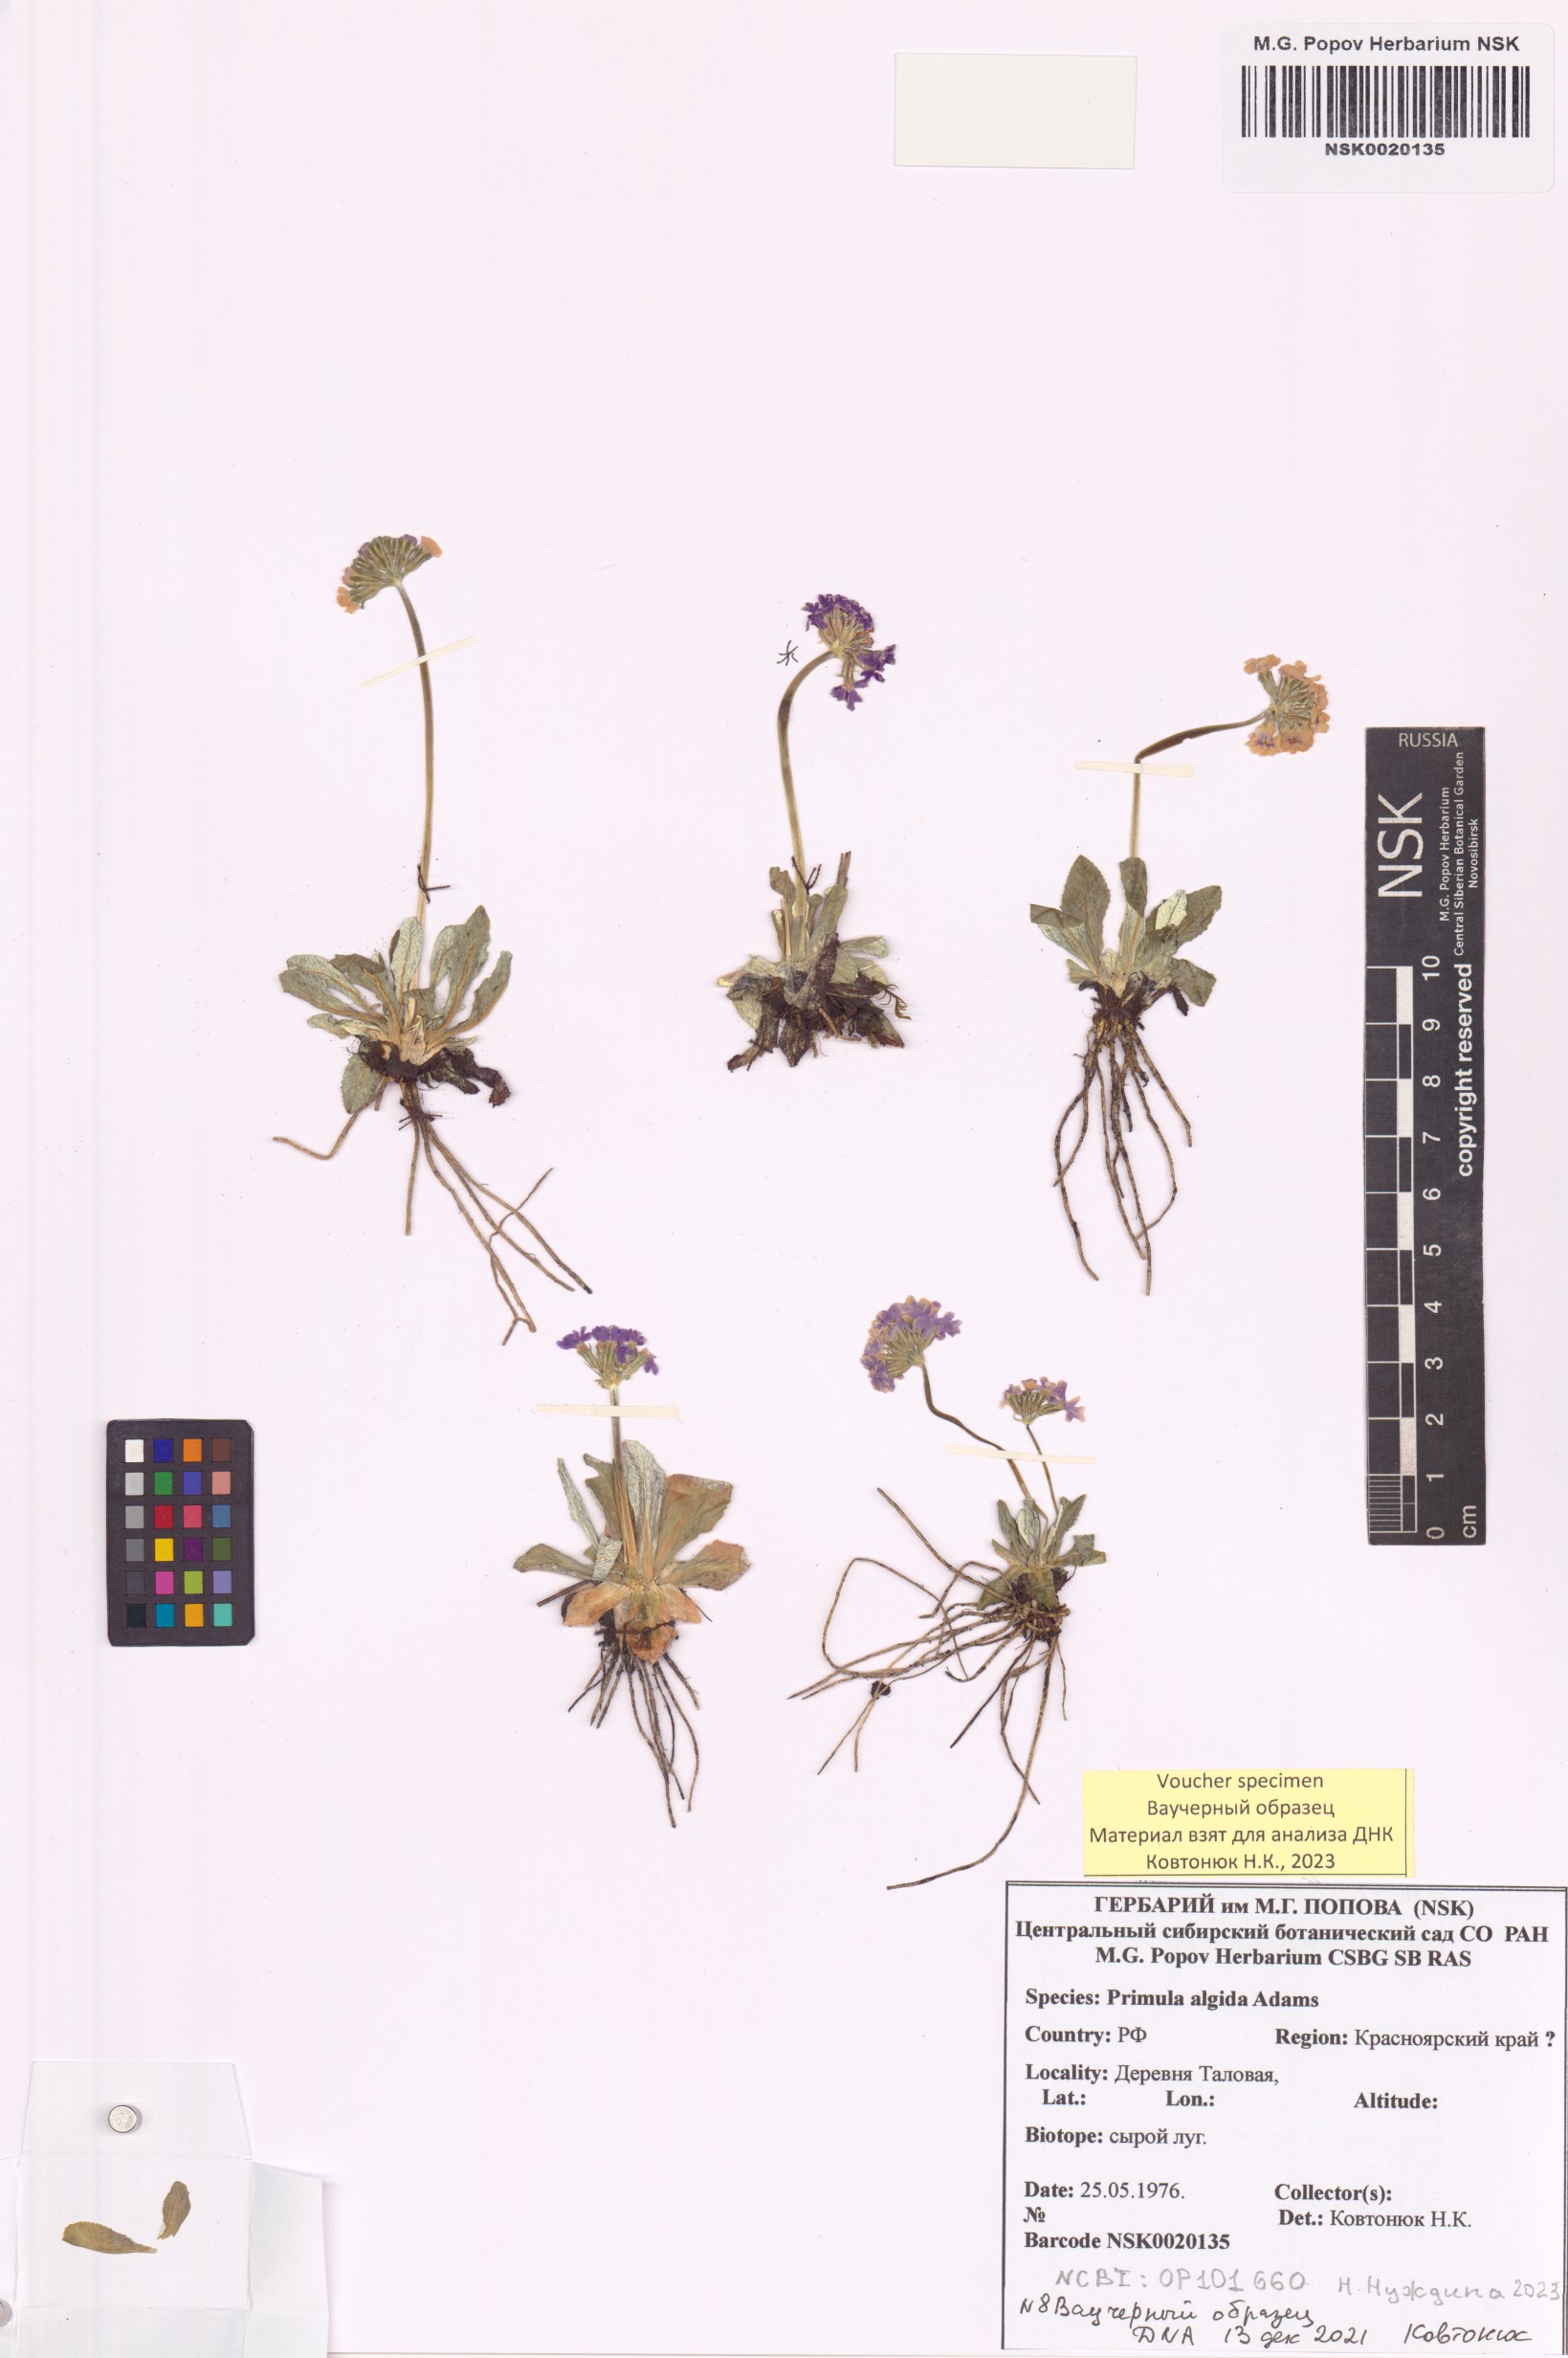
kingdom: Plantae
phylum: Tracheophyta
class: Magnoliopsida
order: Ericales
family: Primulaceae
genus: Primula
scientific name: Primula algida
